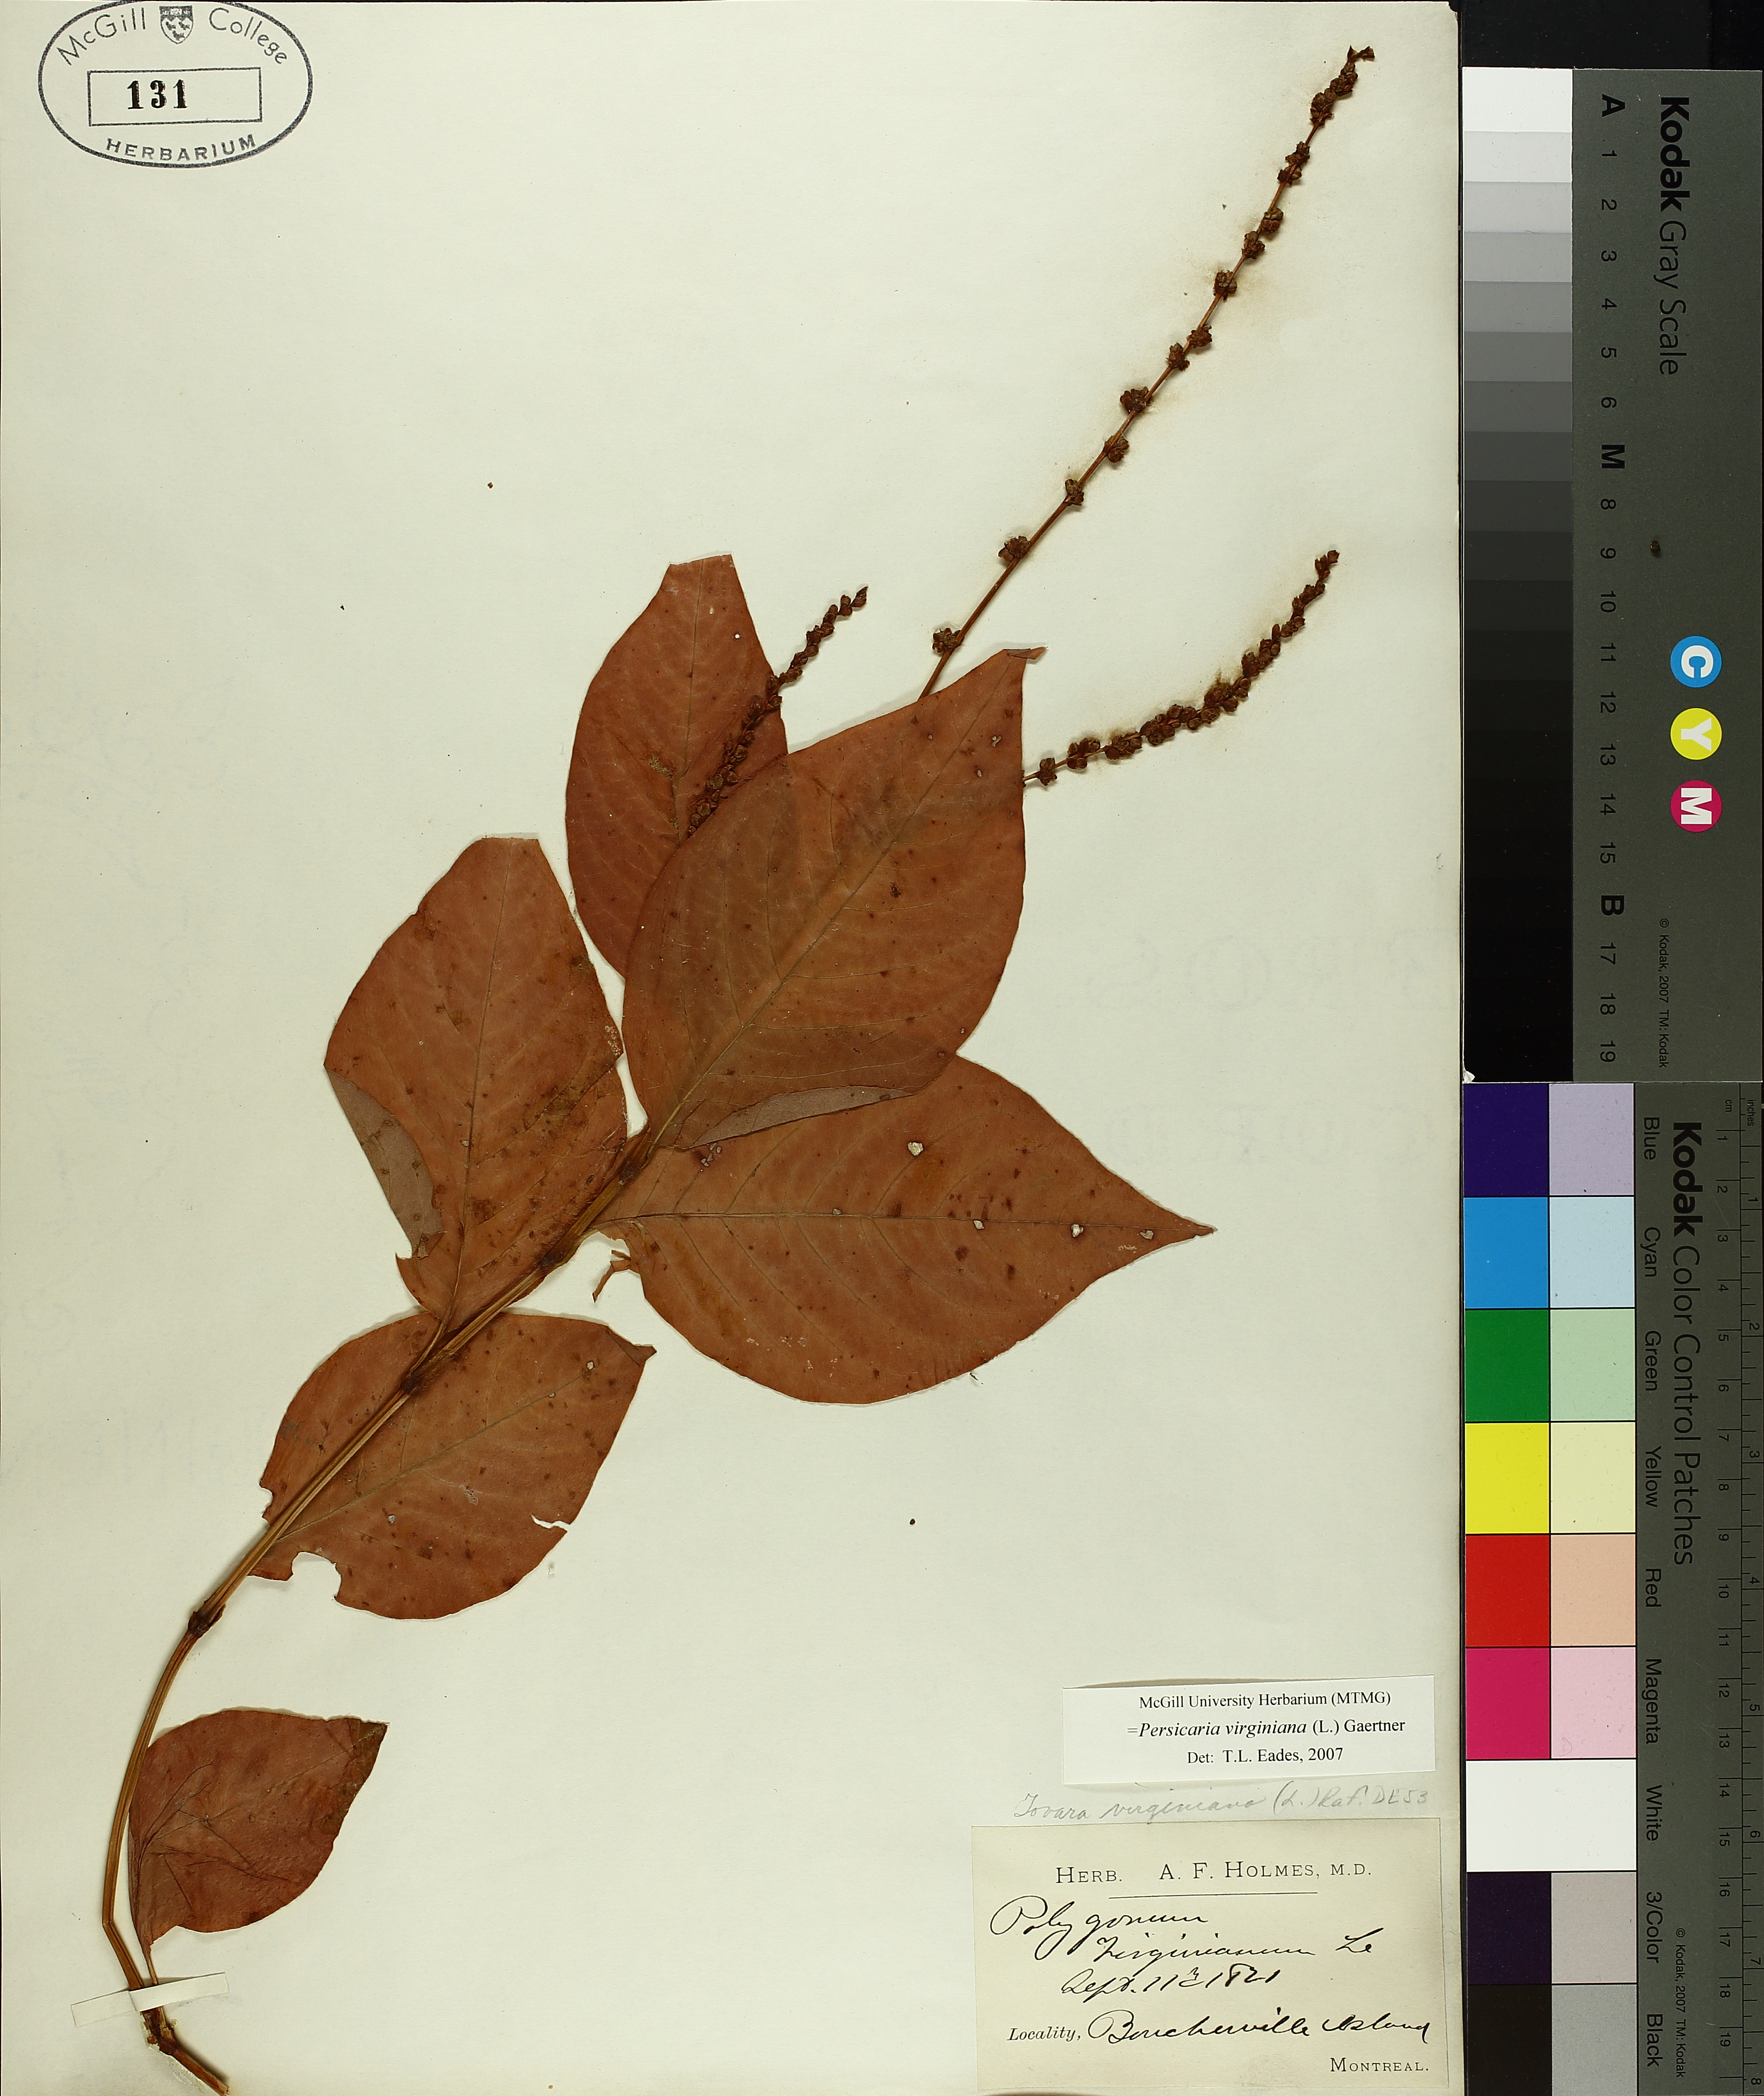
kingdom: Plantae
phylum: Tracheophyta
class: Magnoliopsida
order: Caryophyllales
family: Polygonaceae
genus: Persicaria
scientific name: Persicaria virginiana
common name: Jumpseed
